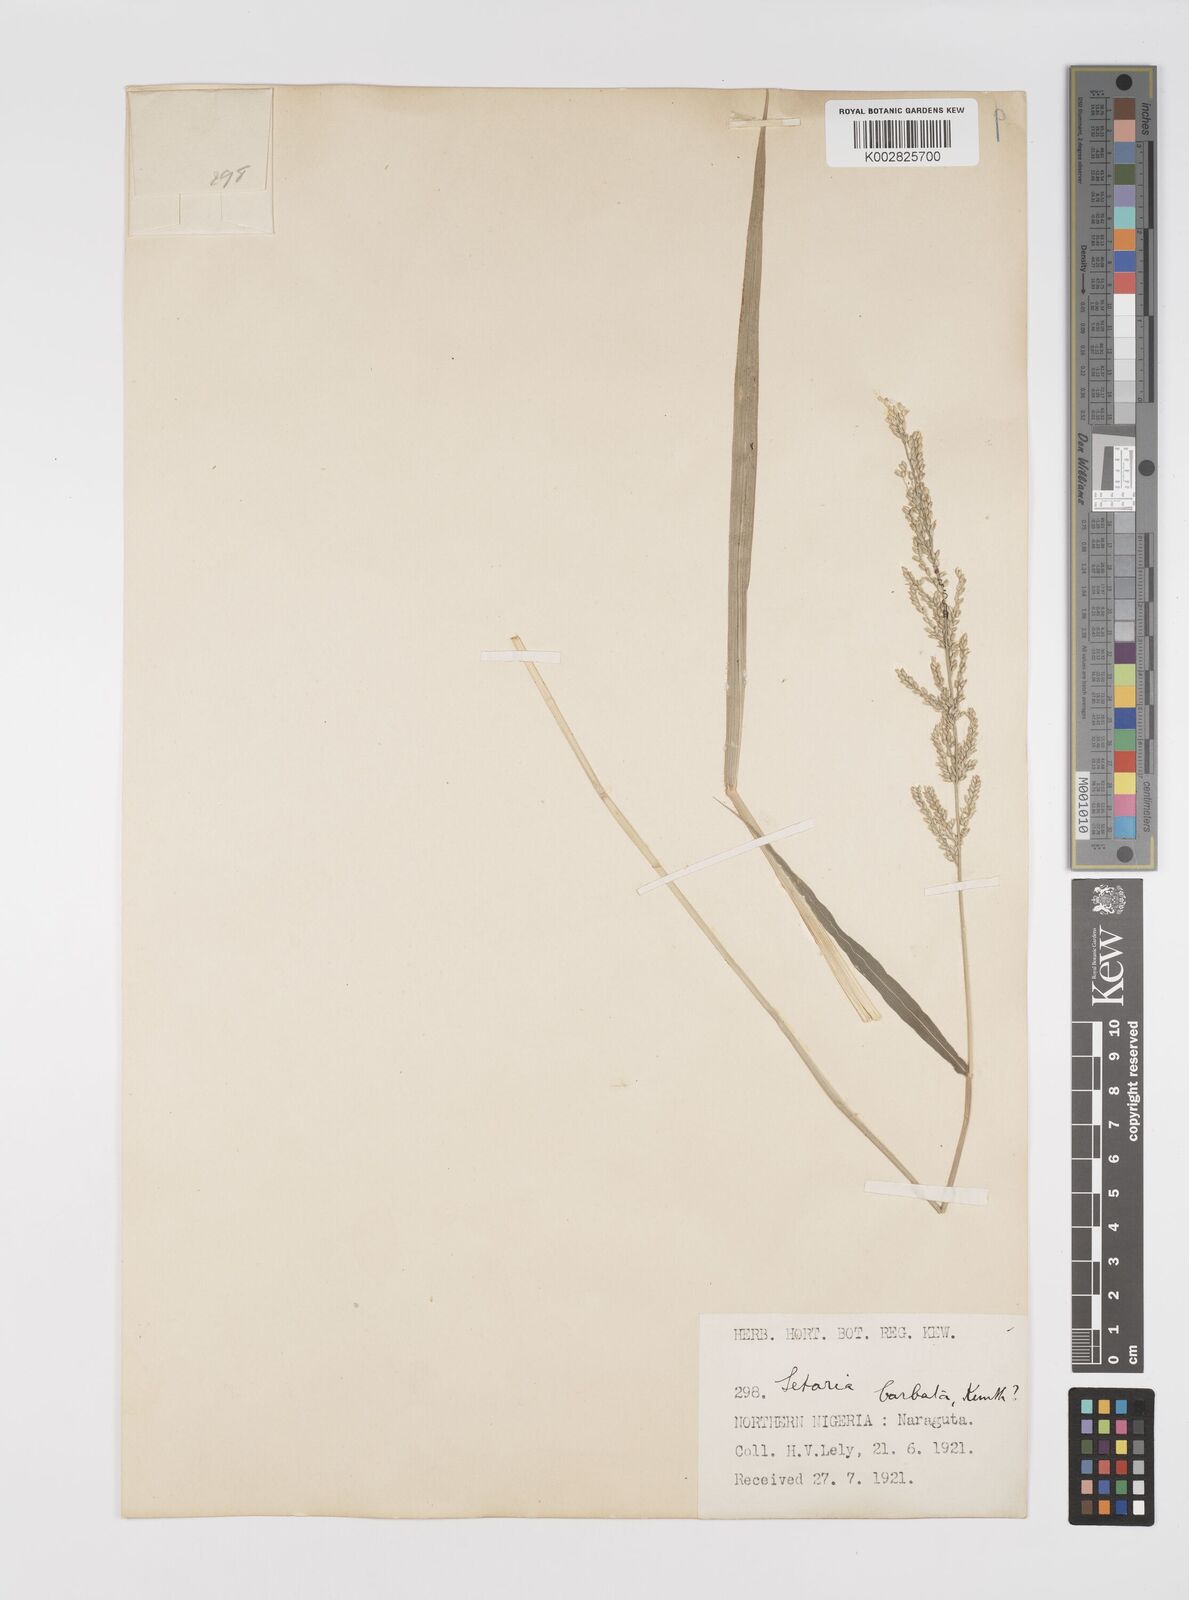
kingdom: Plantae
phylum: Tracheophyta
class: Liliopsida
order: Poales
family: Poaceae
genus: Setaria
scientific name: Setaria barbata
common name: East indian bristlegrass
